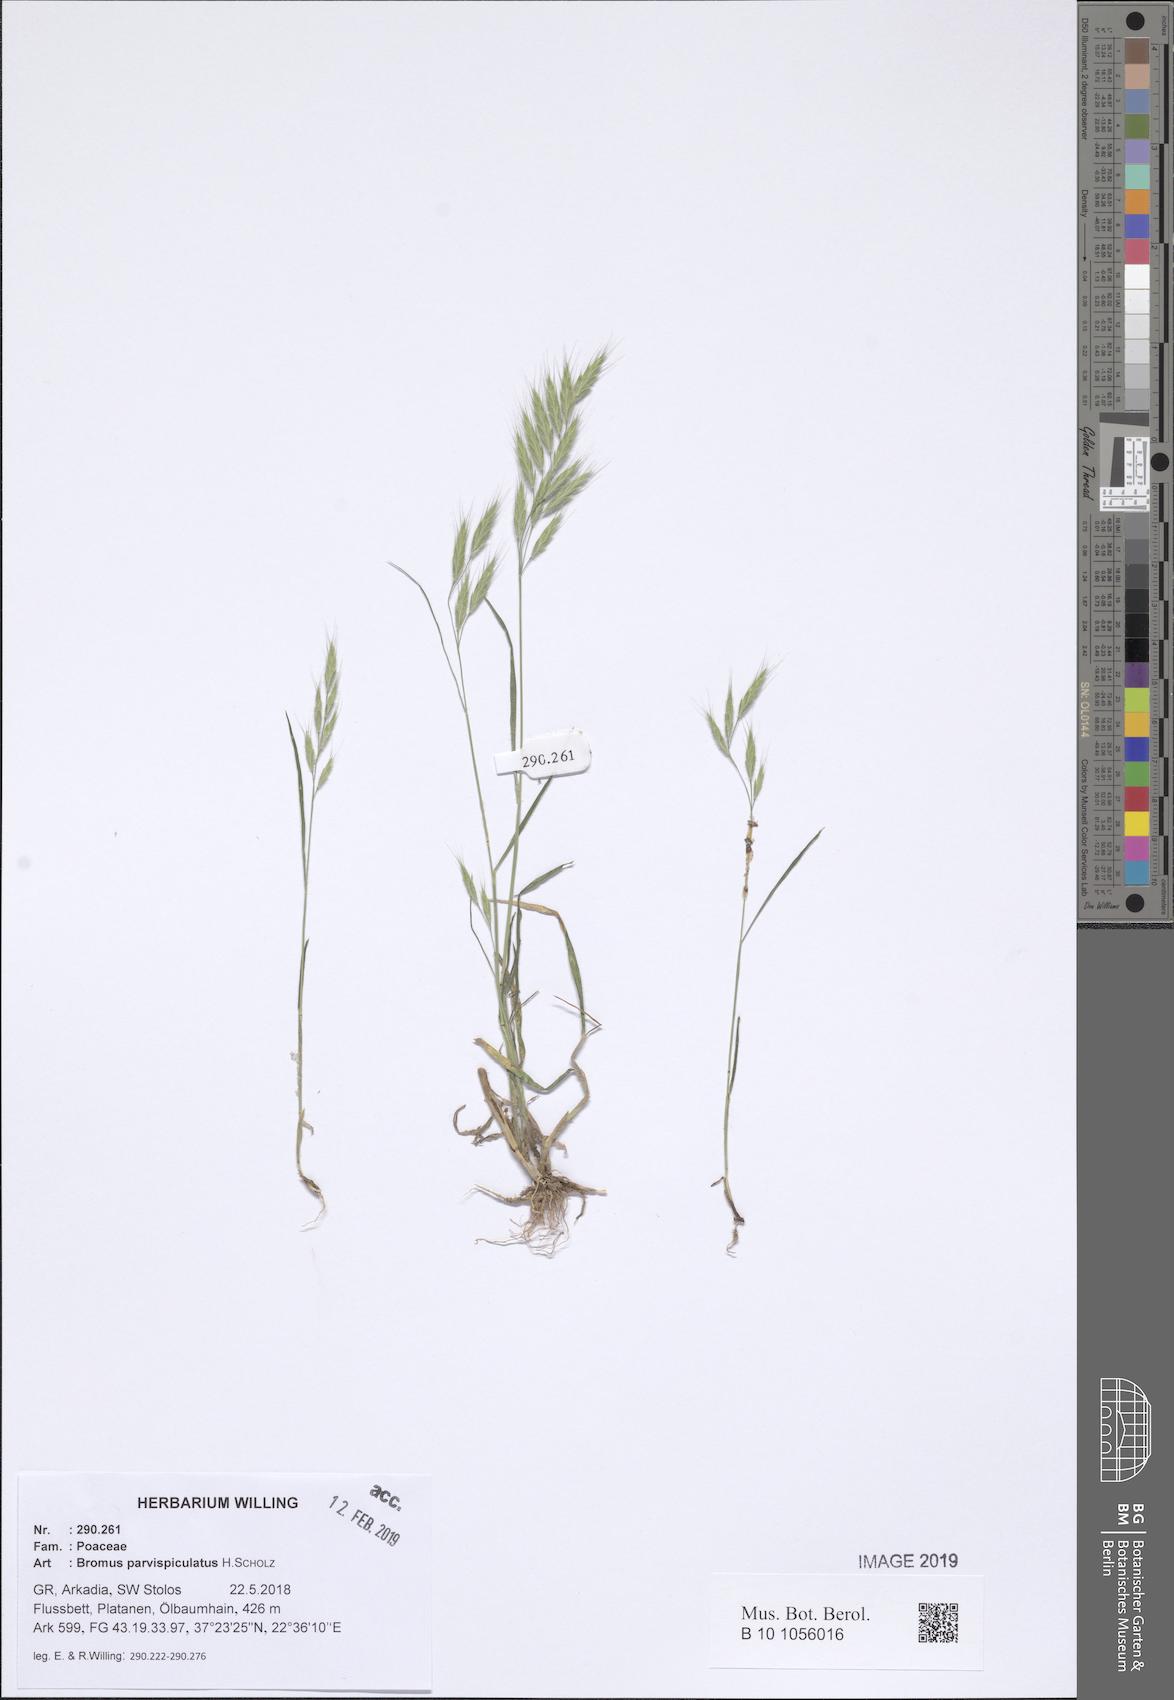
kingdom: Plantae
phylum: Tracheophyta
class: Liliopsida
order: Poales
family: Poaceae
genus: Bromus
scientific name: Bromus hordeaceus
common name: Soft brome
